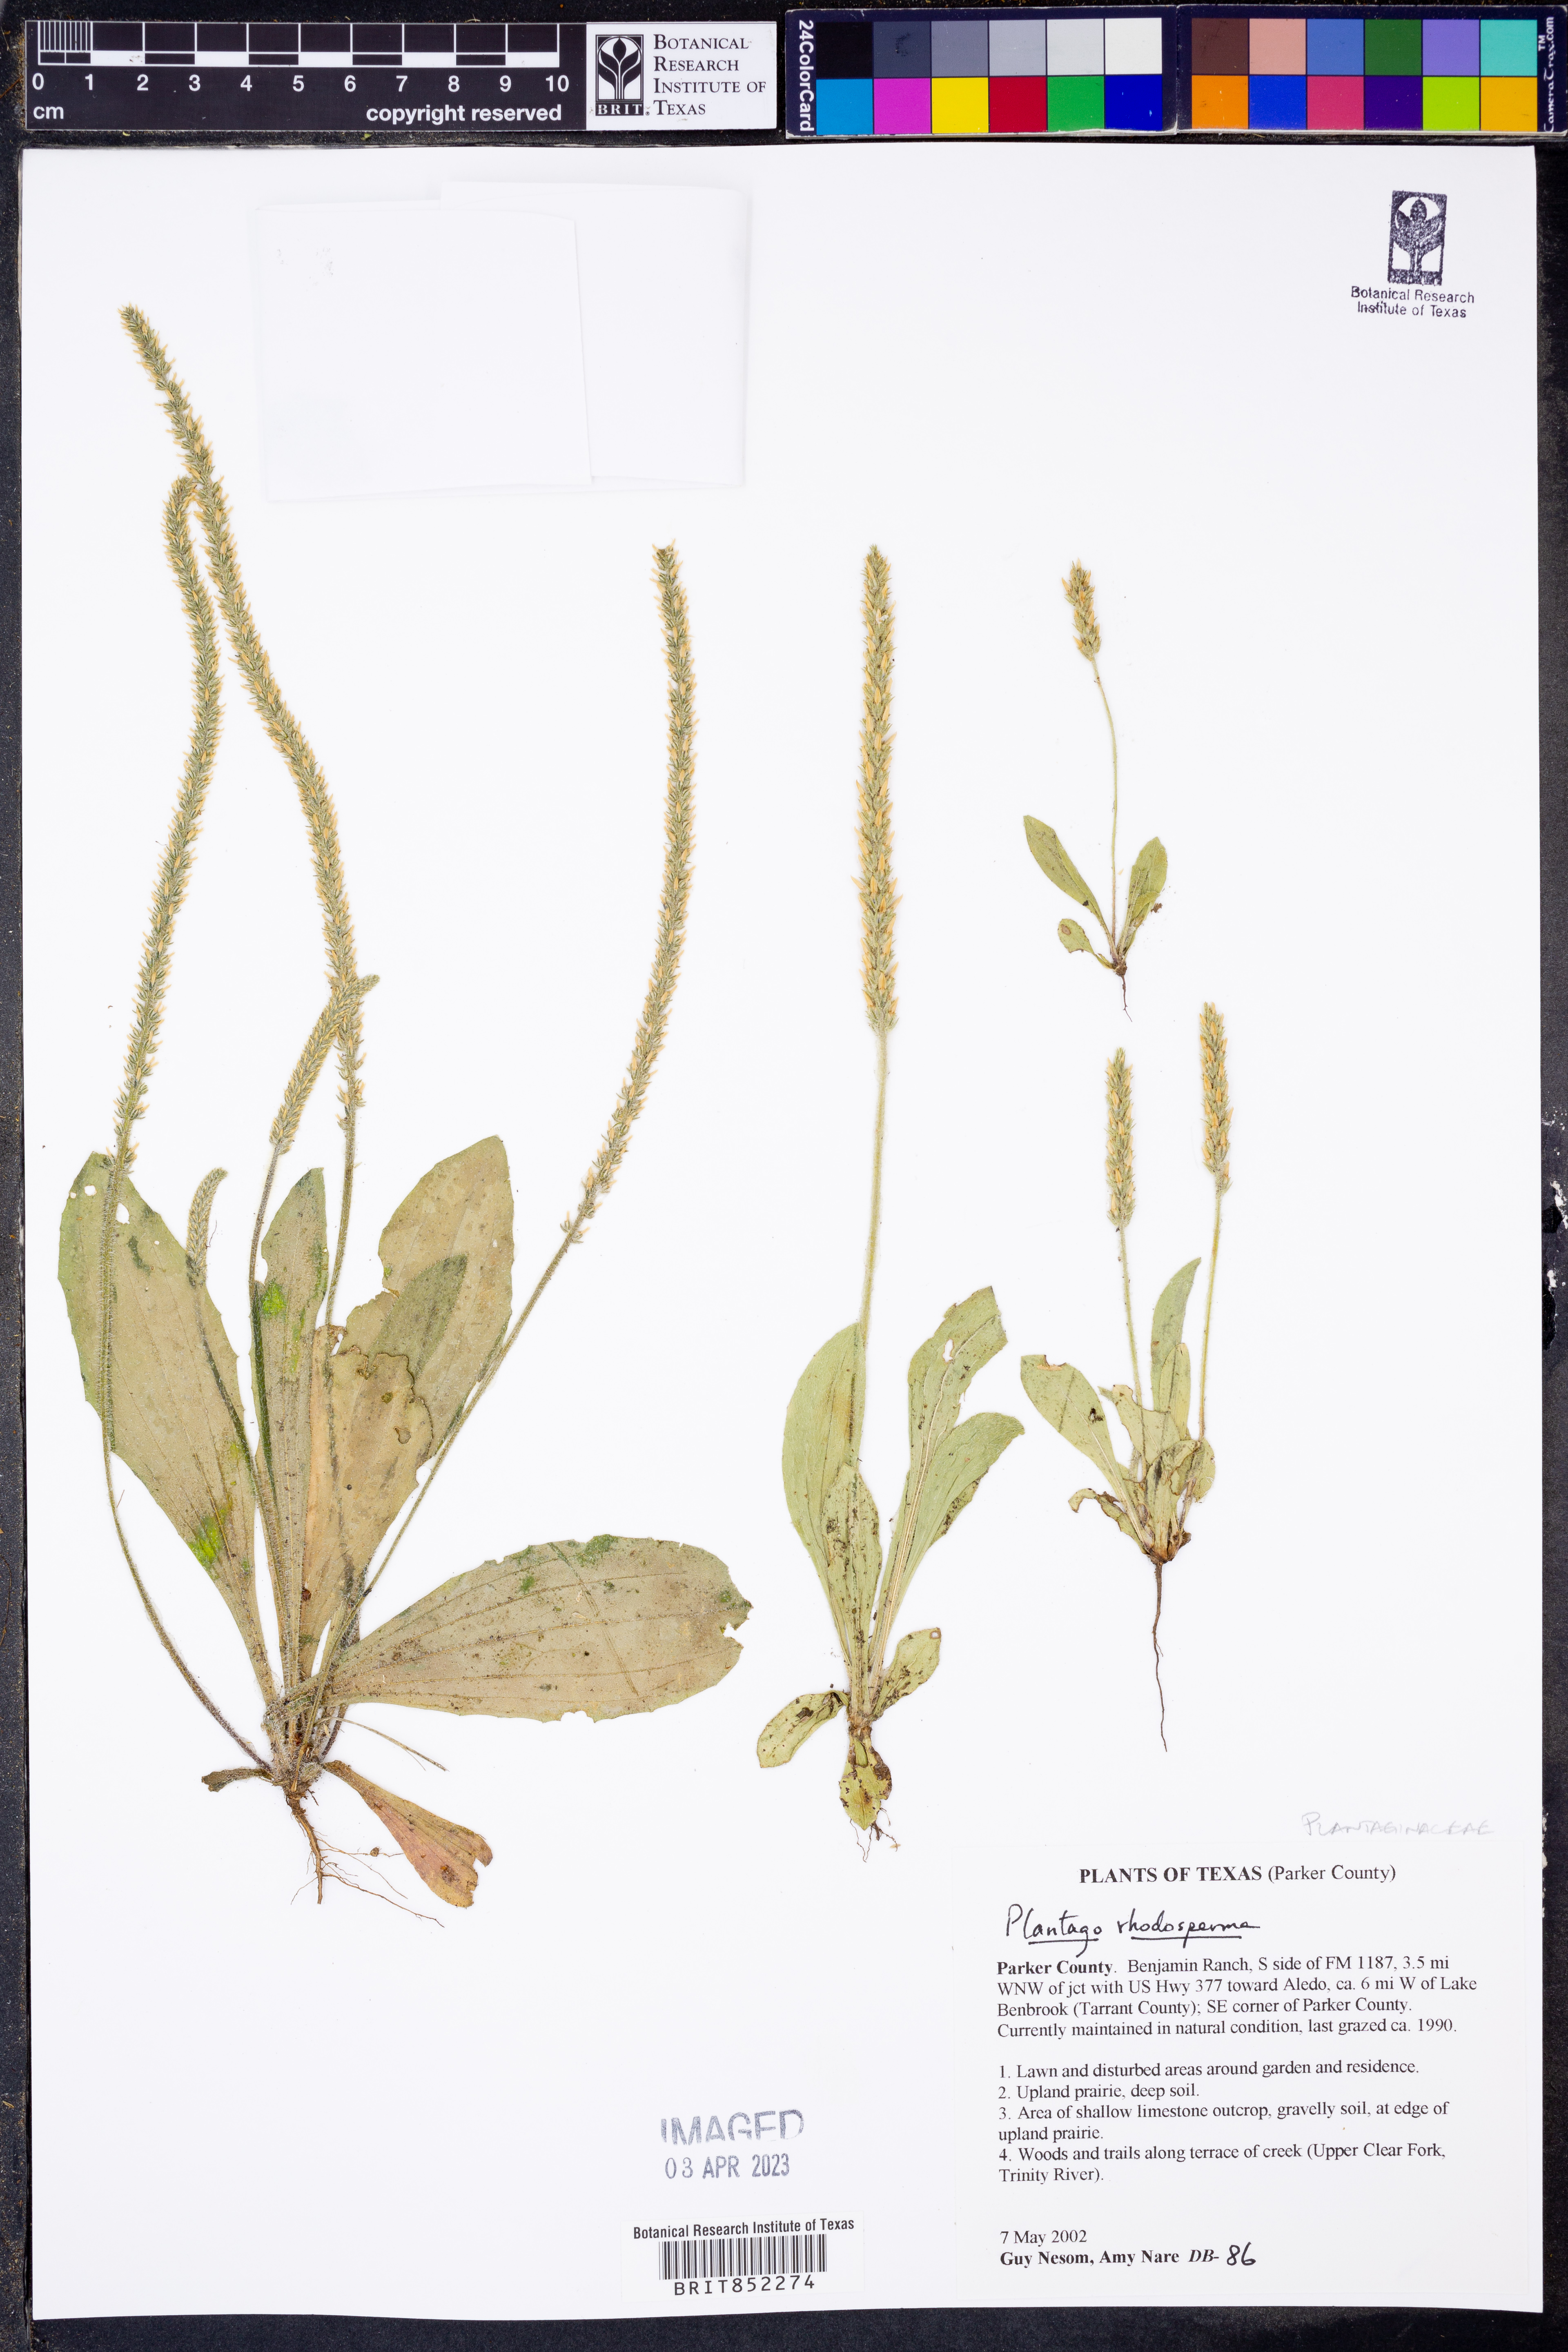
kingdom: Plantae
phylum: Tracheophyta
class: Magnoliopsida
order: Lamiales
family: Plantaginaceae
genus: Plantago
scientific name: Plantago rhodosperma
